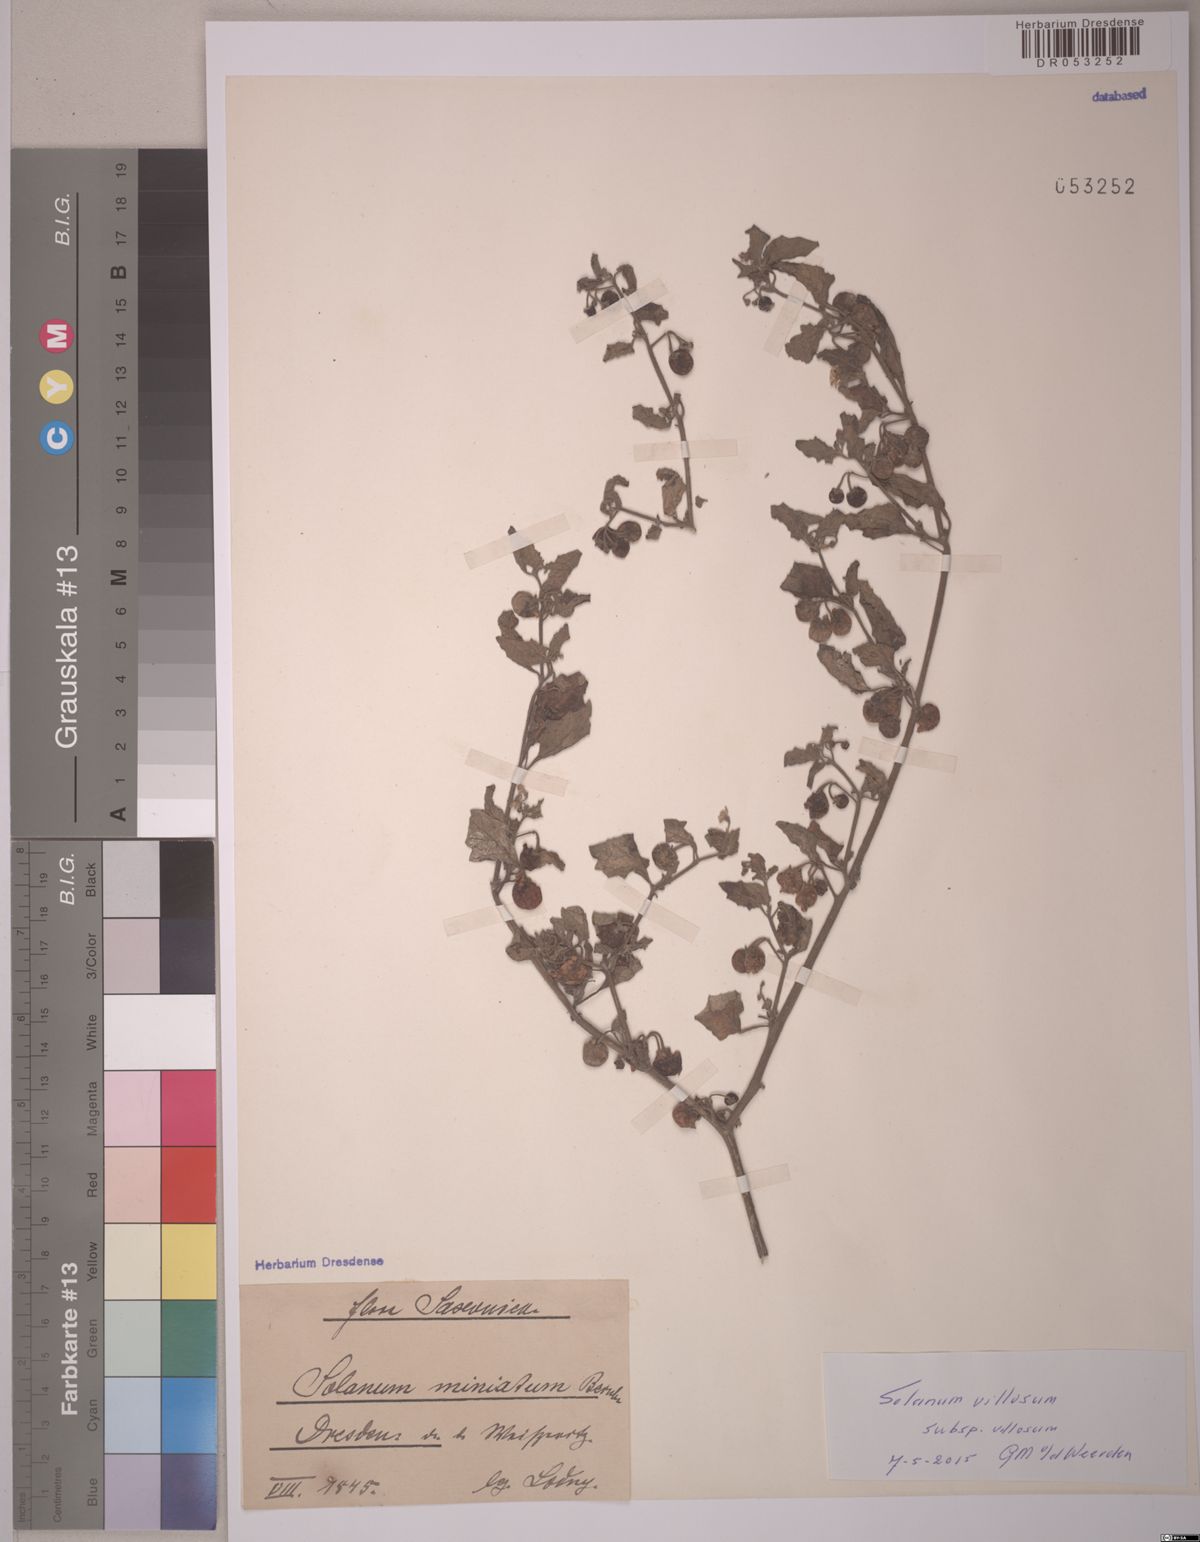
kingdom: Plantae
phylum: Tracheophyta
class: Magnoliopsida
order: Solanales
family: Solanaceae
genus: Solanum
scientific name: Solanum villosum
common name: Red nightshade
